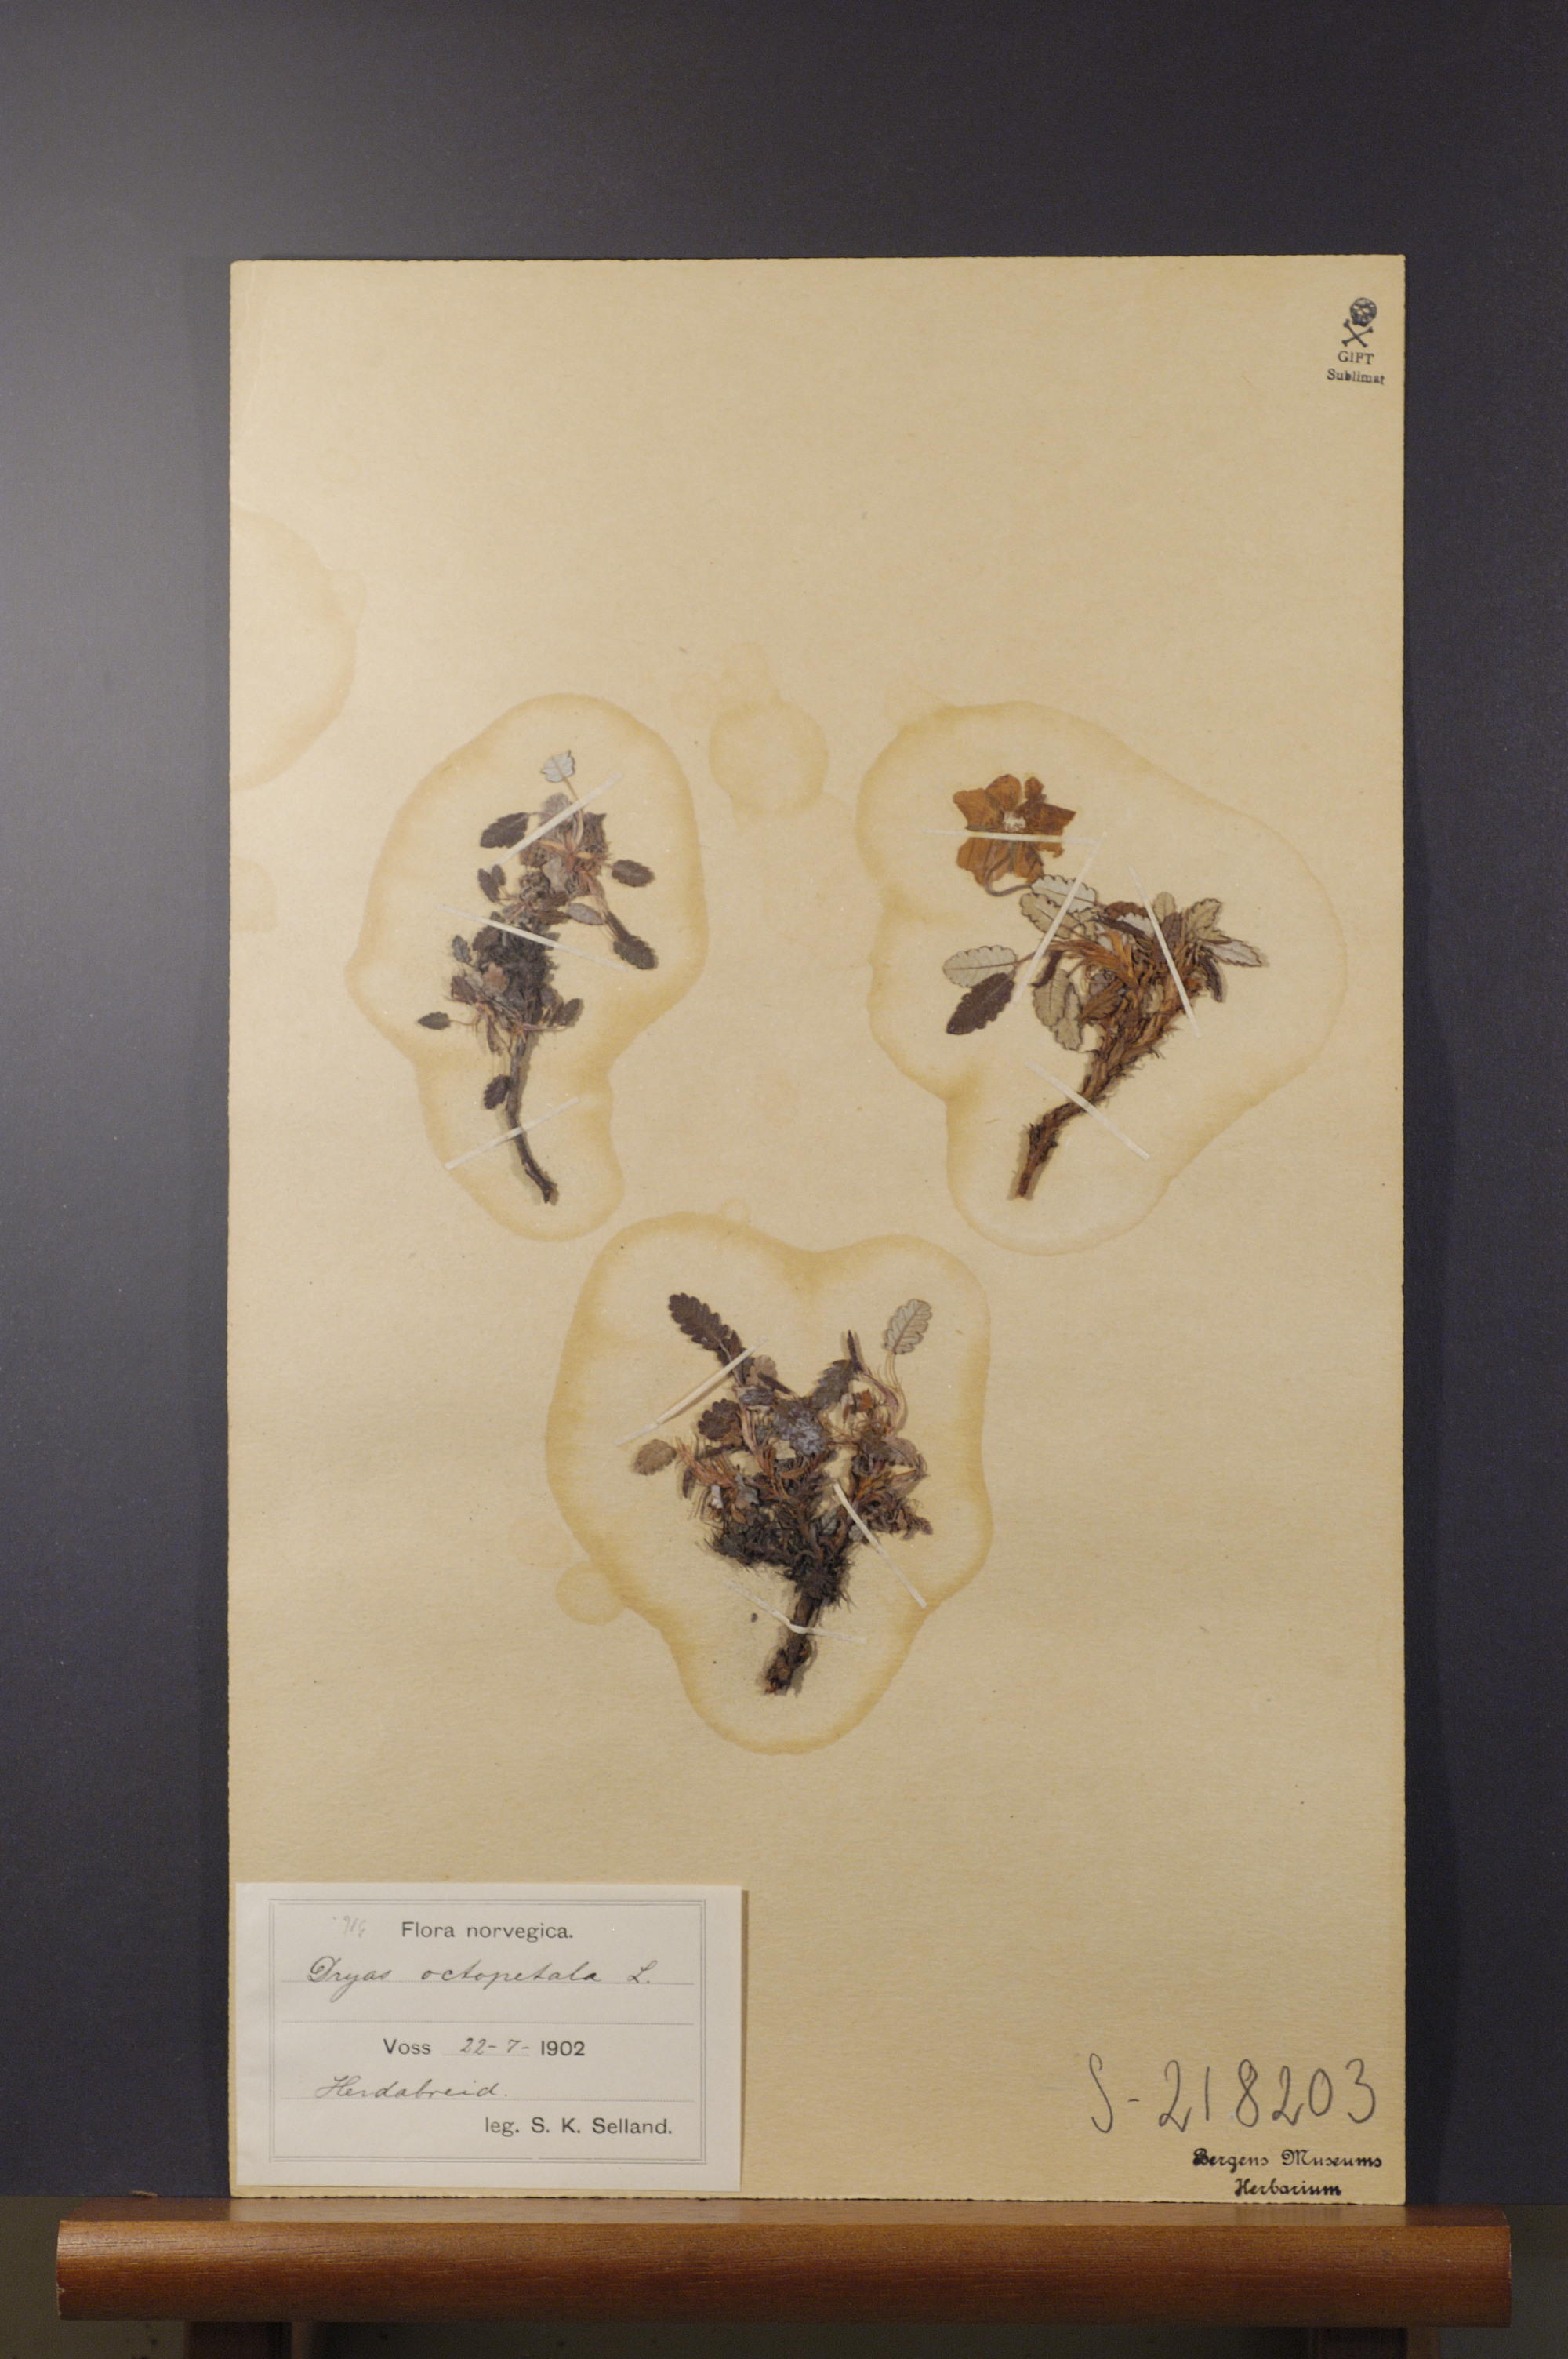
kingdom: Plantae
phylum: Tracheophyta
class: Magnoliopsida
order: Rosales
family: Rosaceae
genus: Dryas
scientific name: Dryas octopetala
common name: Eight-petal mountain-avens
